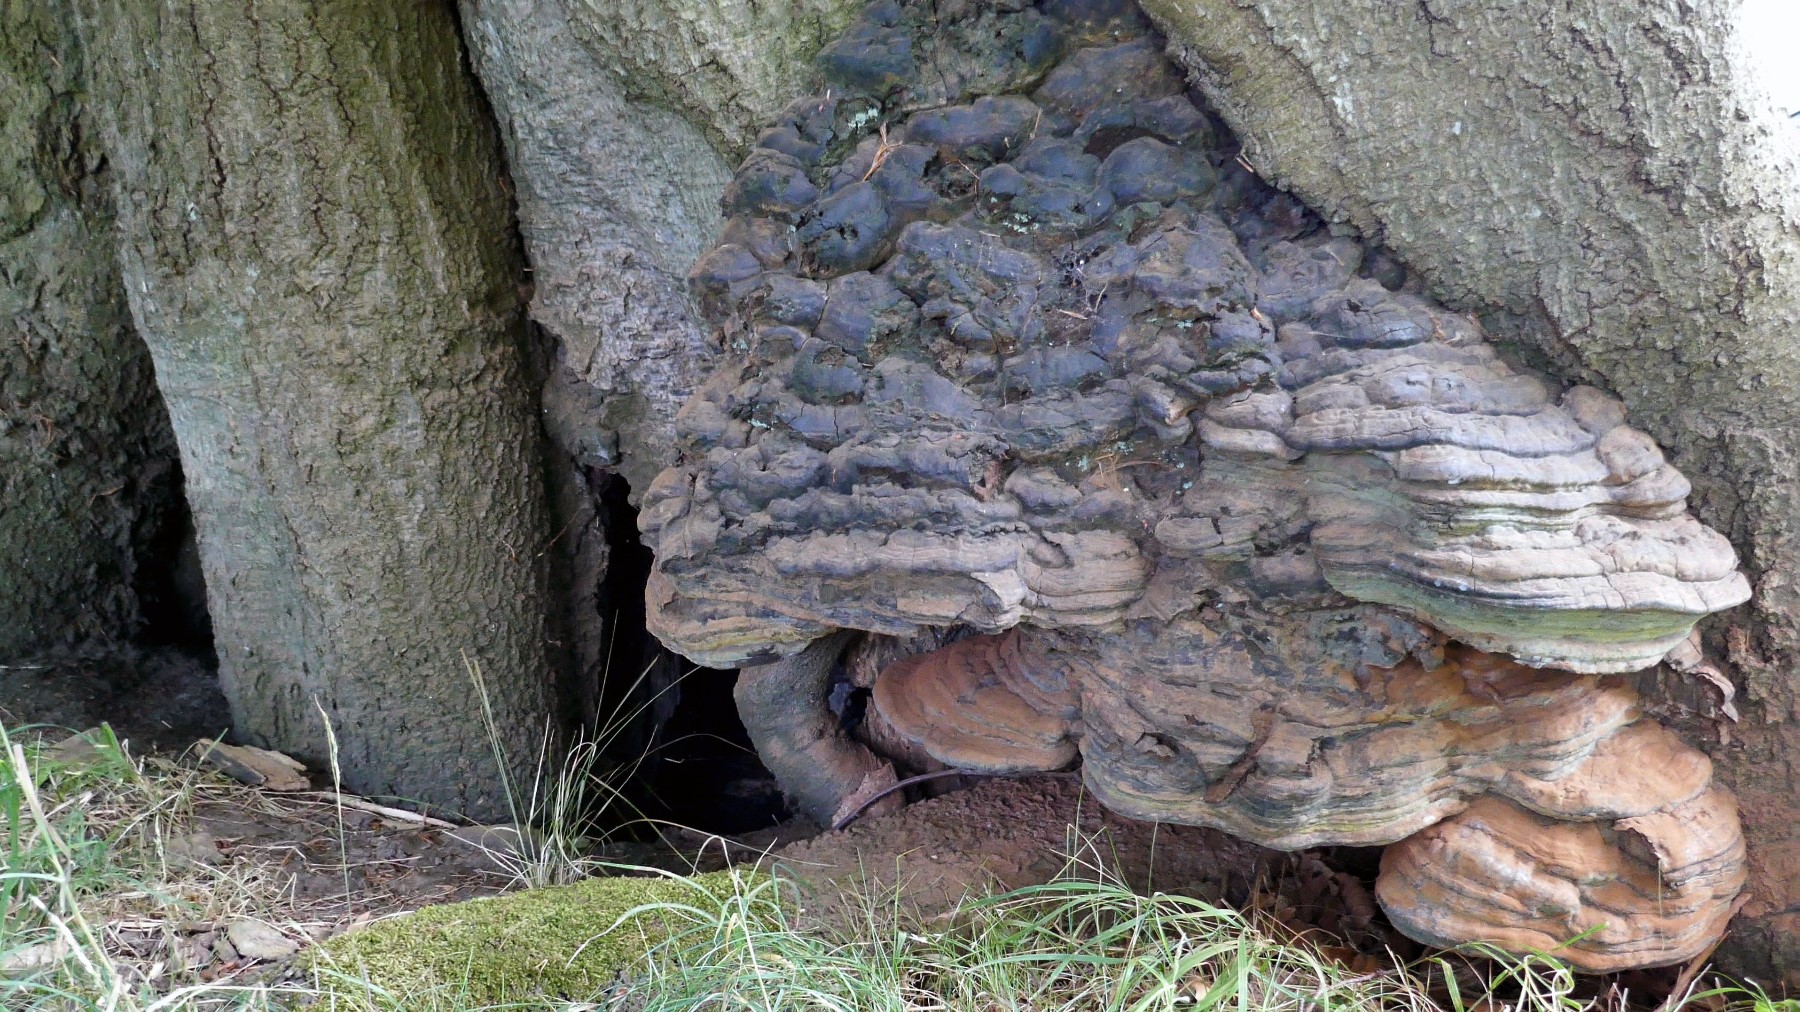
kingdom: Fungi
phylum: Basidiomycota
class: Agaricomycetes
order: Polyporales
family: Polyporaceae
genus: Ganoderma
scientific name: Ganoderma adspersum
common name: grov lakporesvamp
